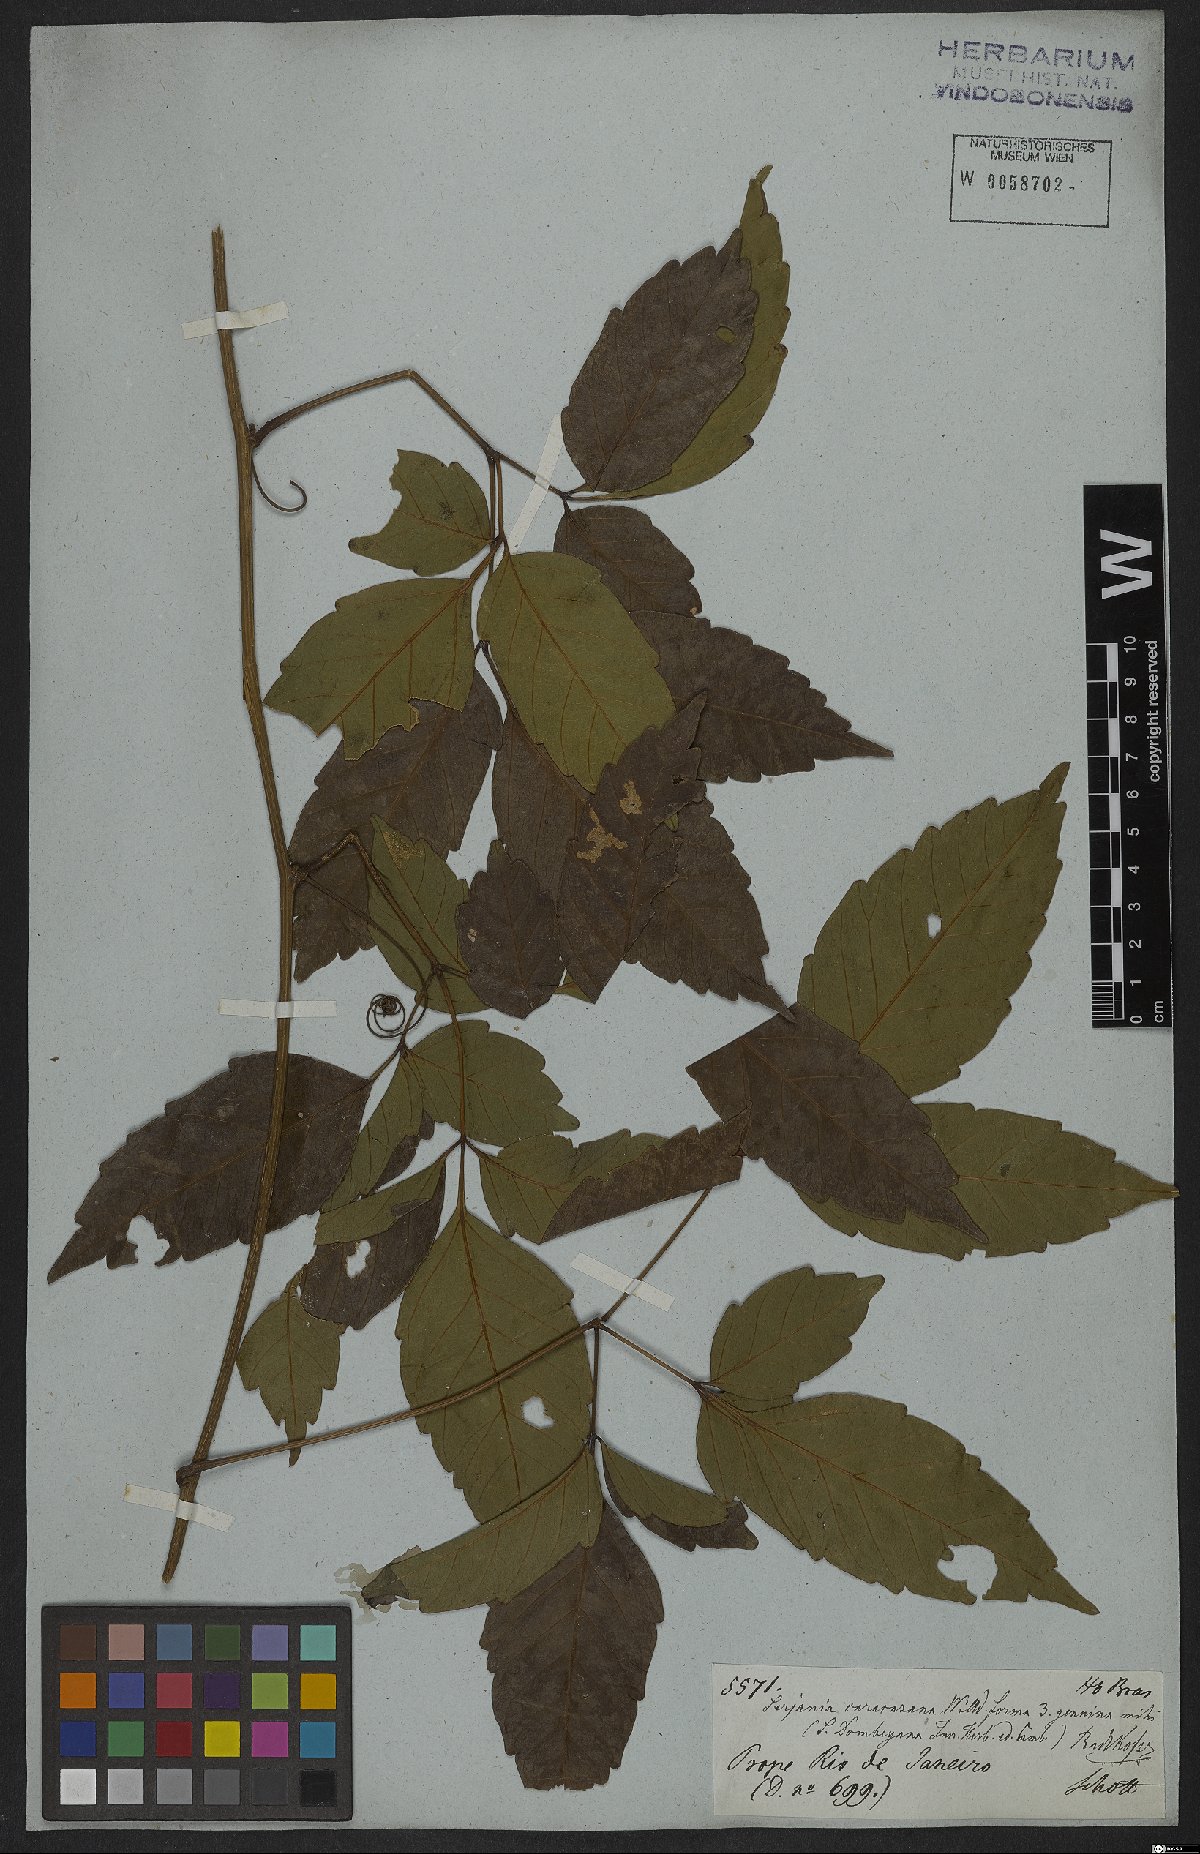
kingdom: Plantae
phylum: Tracheophyta
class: Magnoliopsida
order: Sapindales
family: Sapindaceae
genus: Serjania
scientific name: Serjania caracasana
